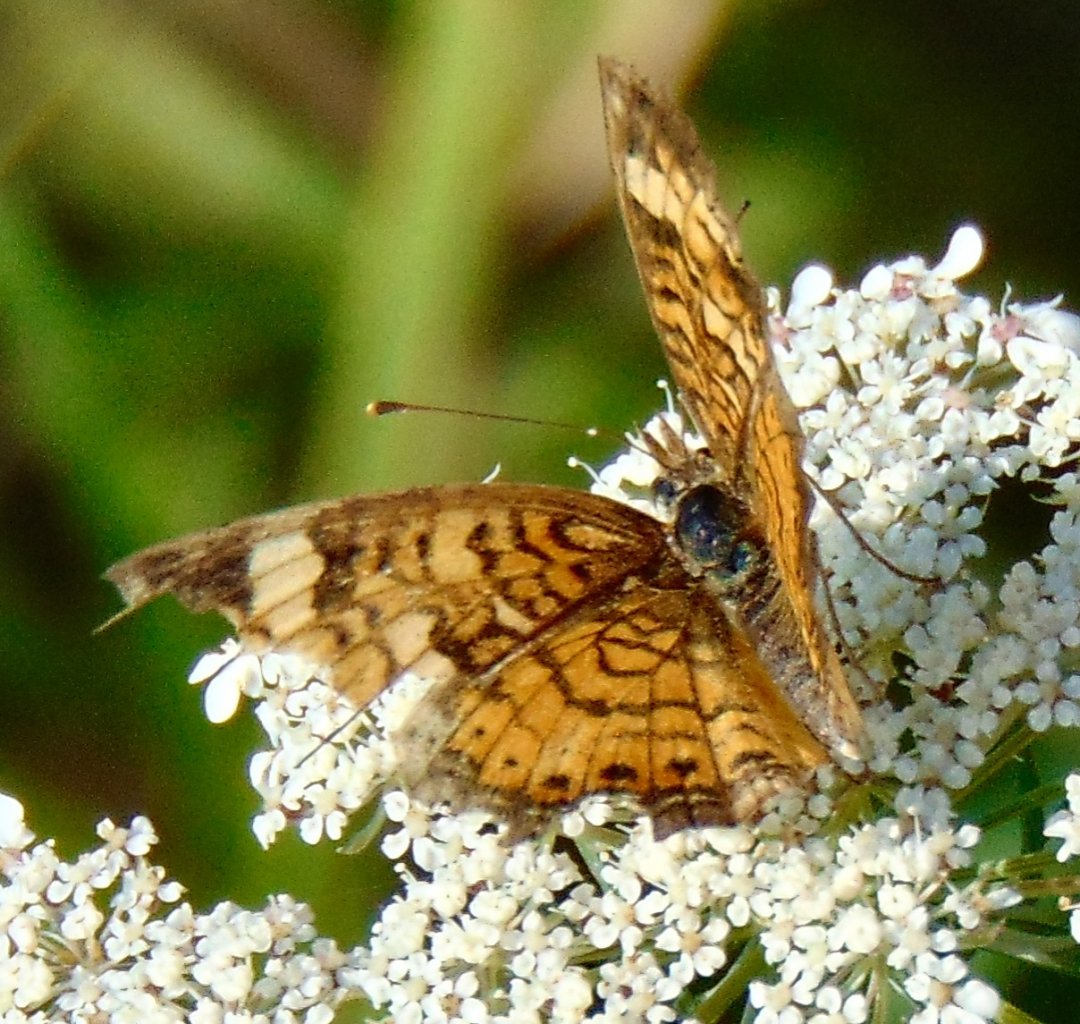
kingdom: Animalia
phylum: Arthropoda
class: Insecta
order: Lepidoptera
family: Nymphalidae
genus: Phyciodes
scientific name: Phyciodes tharos
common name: Pearl Crescent
